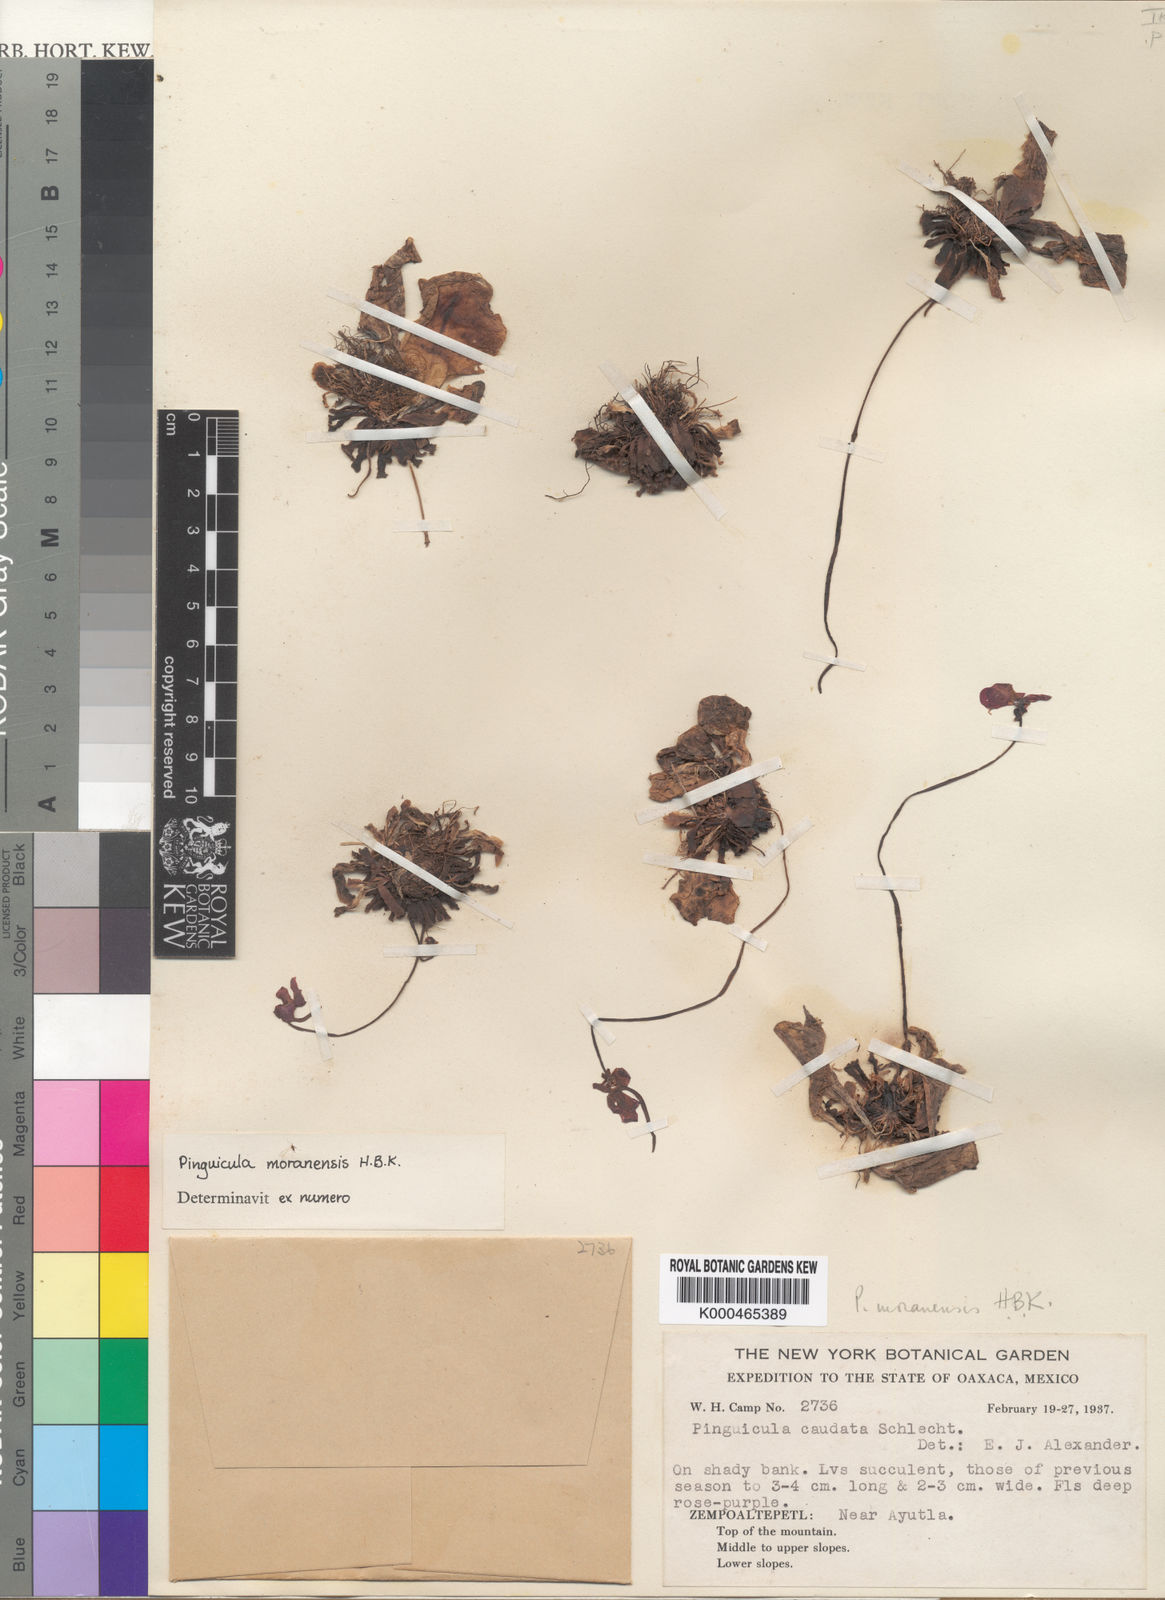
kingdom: Plantae
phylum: Tracheophyta
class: Magnoliopsida
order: Lamiales
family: Lentibulariaceae
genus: Pinguicula
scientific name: Pinguicula caudata
